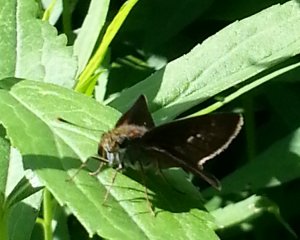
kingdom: Animalia
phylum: Arthropoda
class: Insecta
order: Lepidoptera
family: Hesperiidae
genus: Vernia
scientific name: Vernia verna
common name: Little Glassywing
